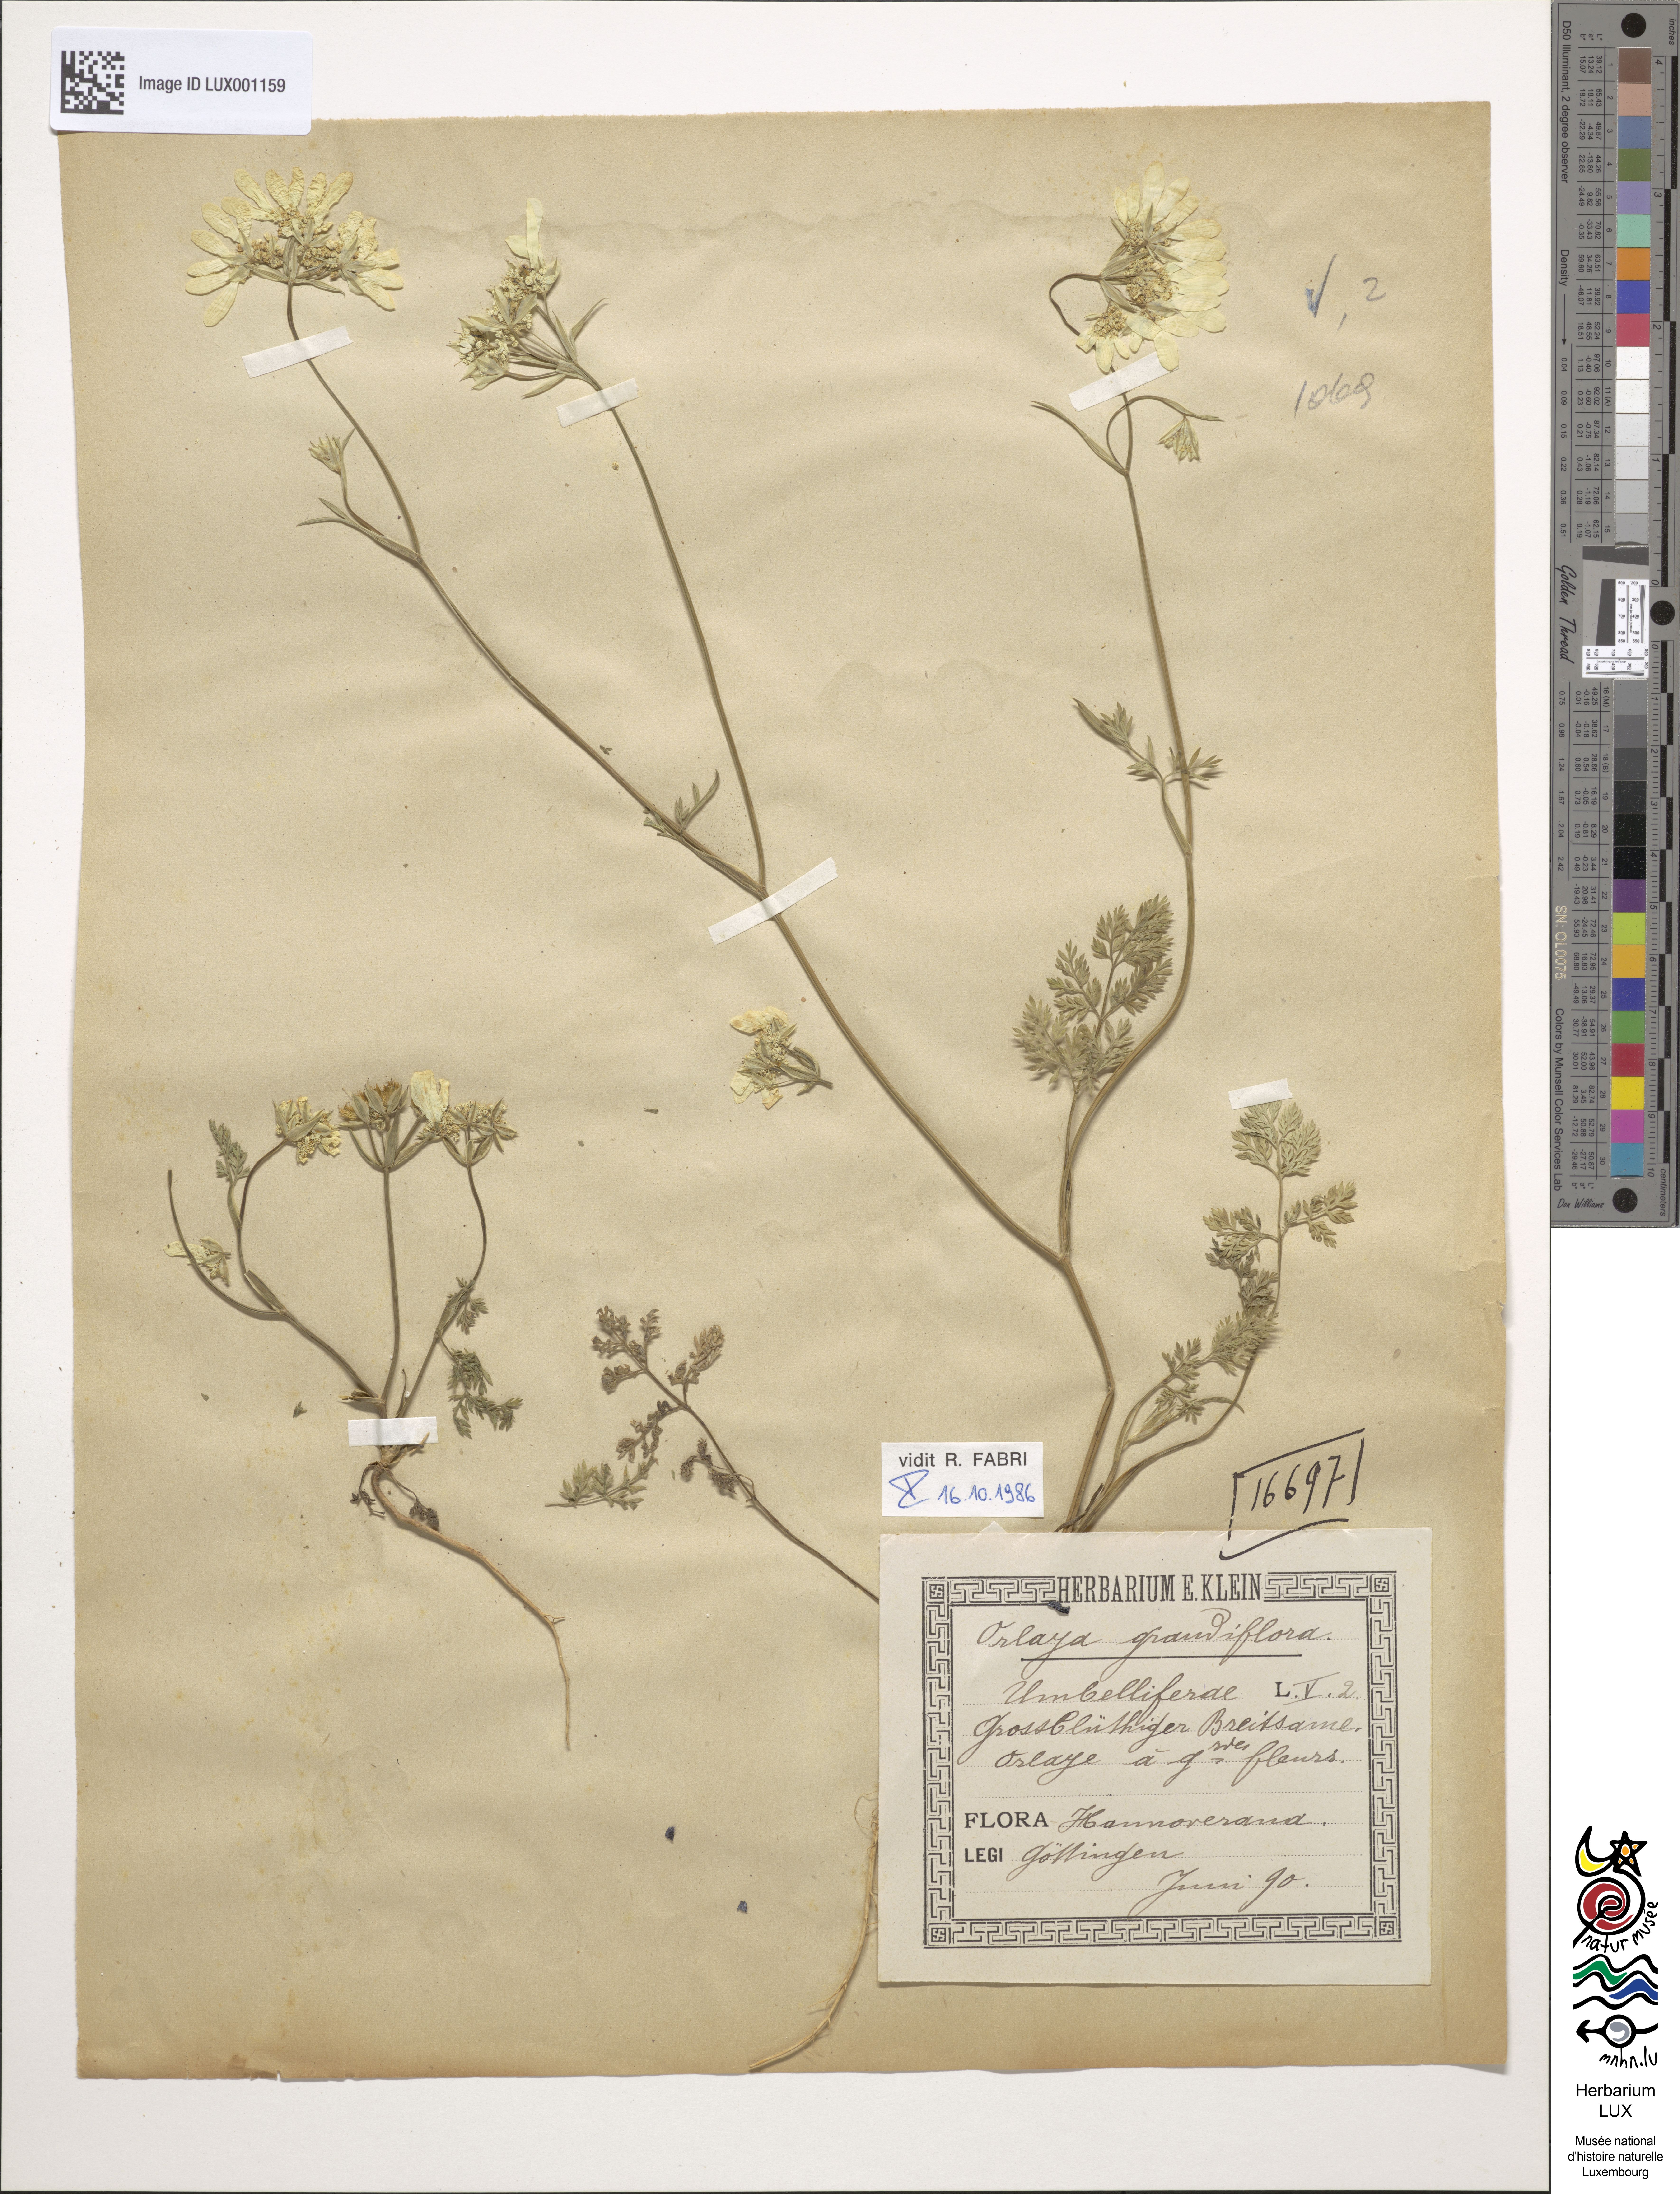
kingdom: Plantae
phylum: Tracheophyta
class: Magnoliopsida
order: Apiales
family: Apiaceae
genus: Orlaya
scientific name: Orlaya grandiflora
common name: White lace flower
